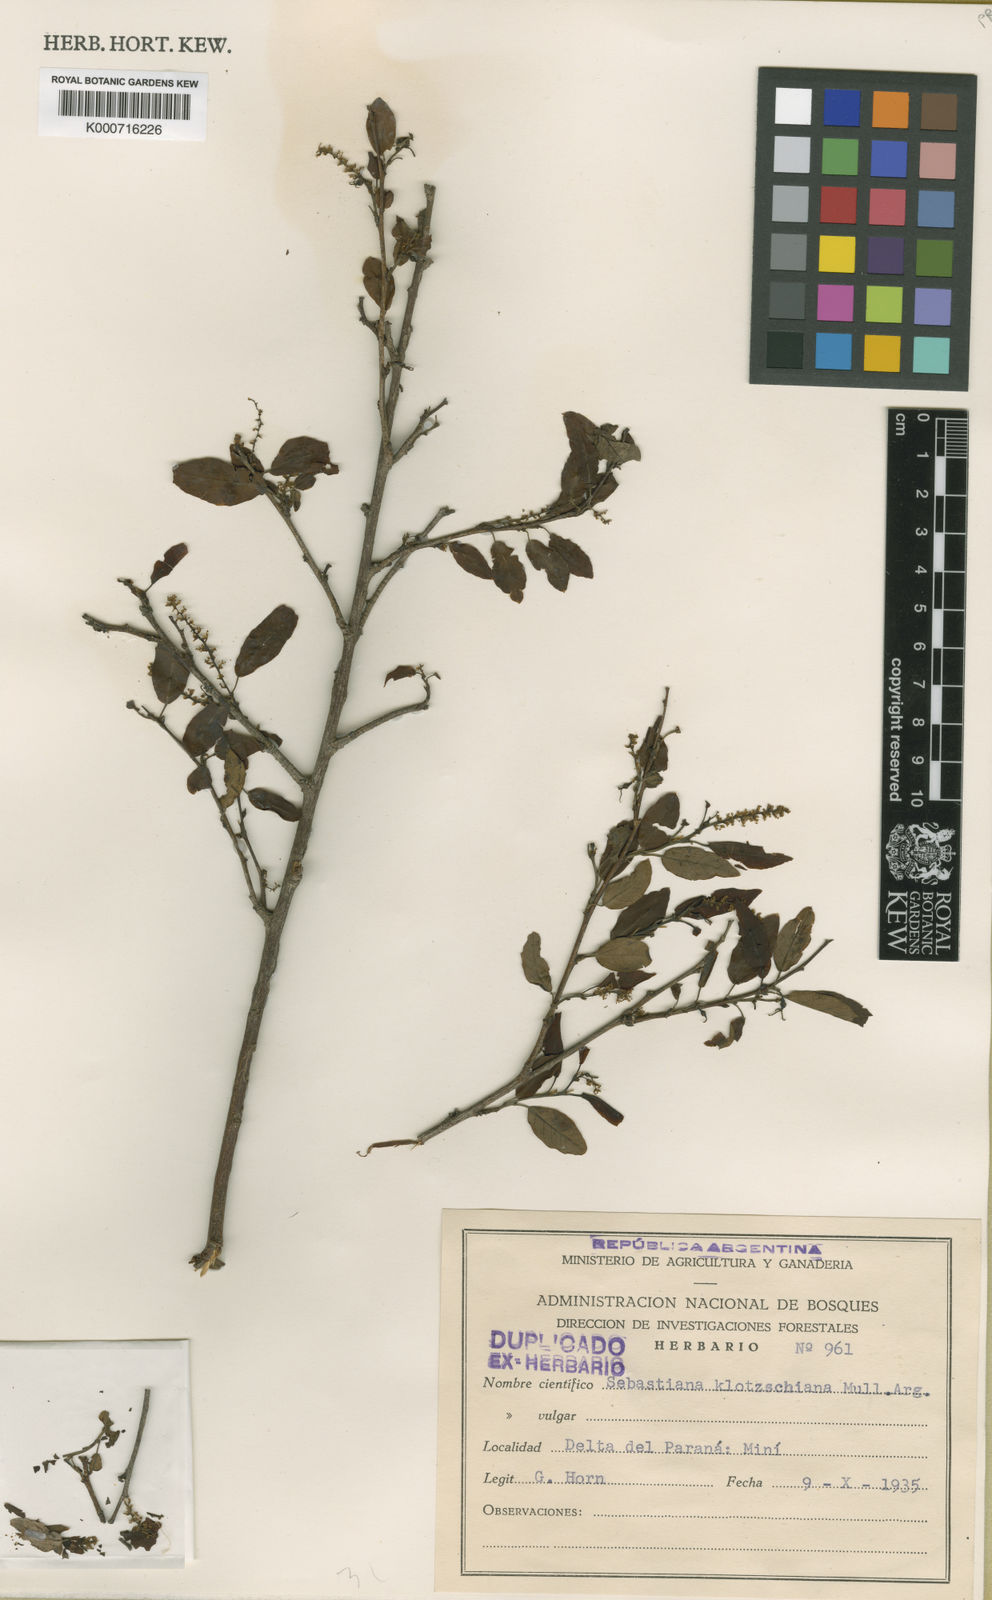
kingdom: Plantae
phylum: Tracheophyta
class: Magnoliopsida
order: Malpighiales
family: Euphorbiaceae
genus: Sebastiania
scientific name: Sebastiania
